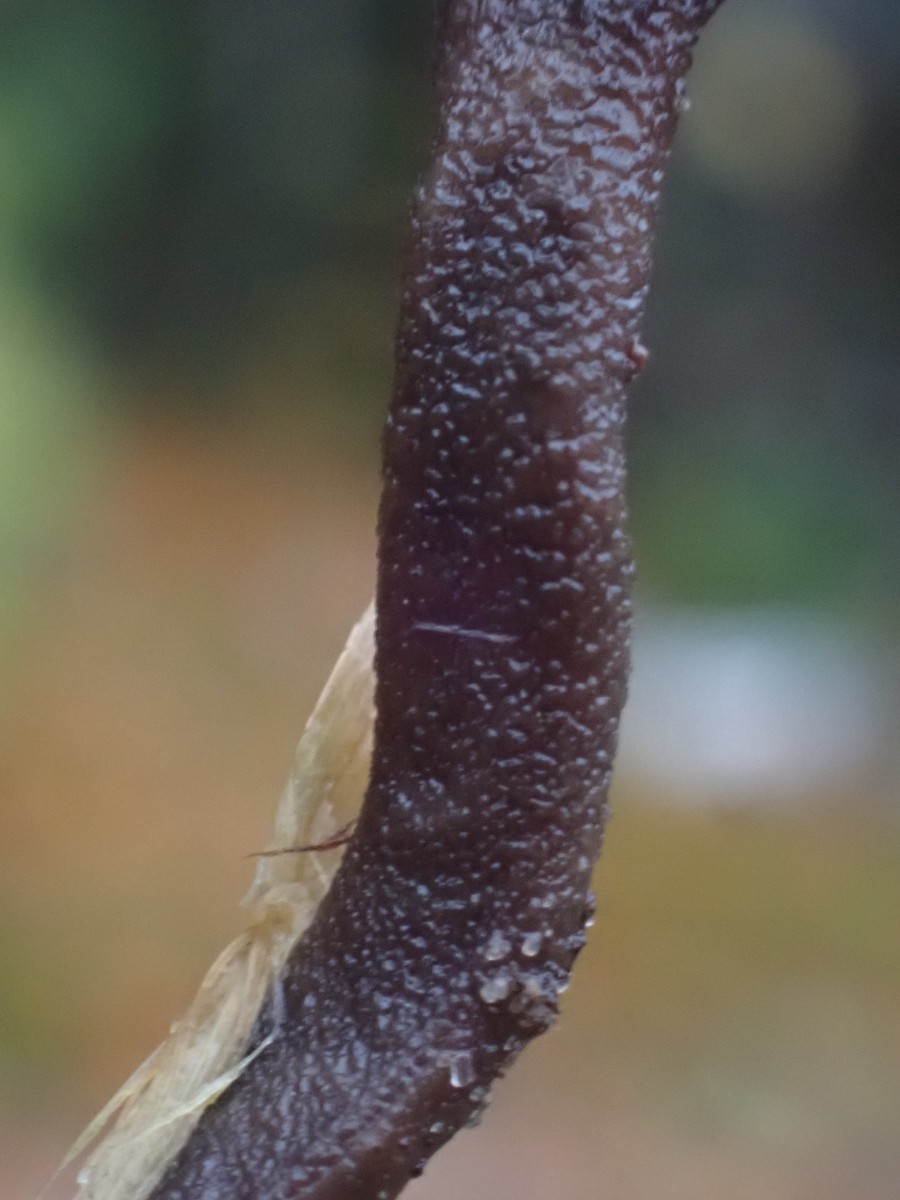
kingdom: Fungi
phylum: Ascomycota
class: Geoglossomycetes
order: Geoglossales
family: Geoglossaceae
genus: Hemileucoglossum
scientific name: Hemileucoglossum elongatum
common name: småsporet jordtunge
